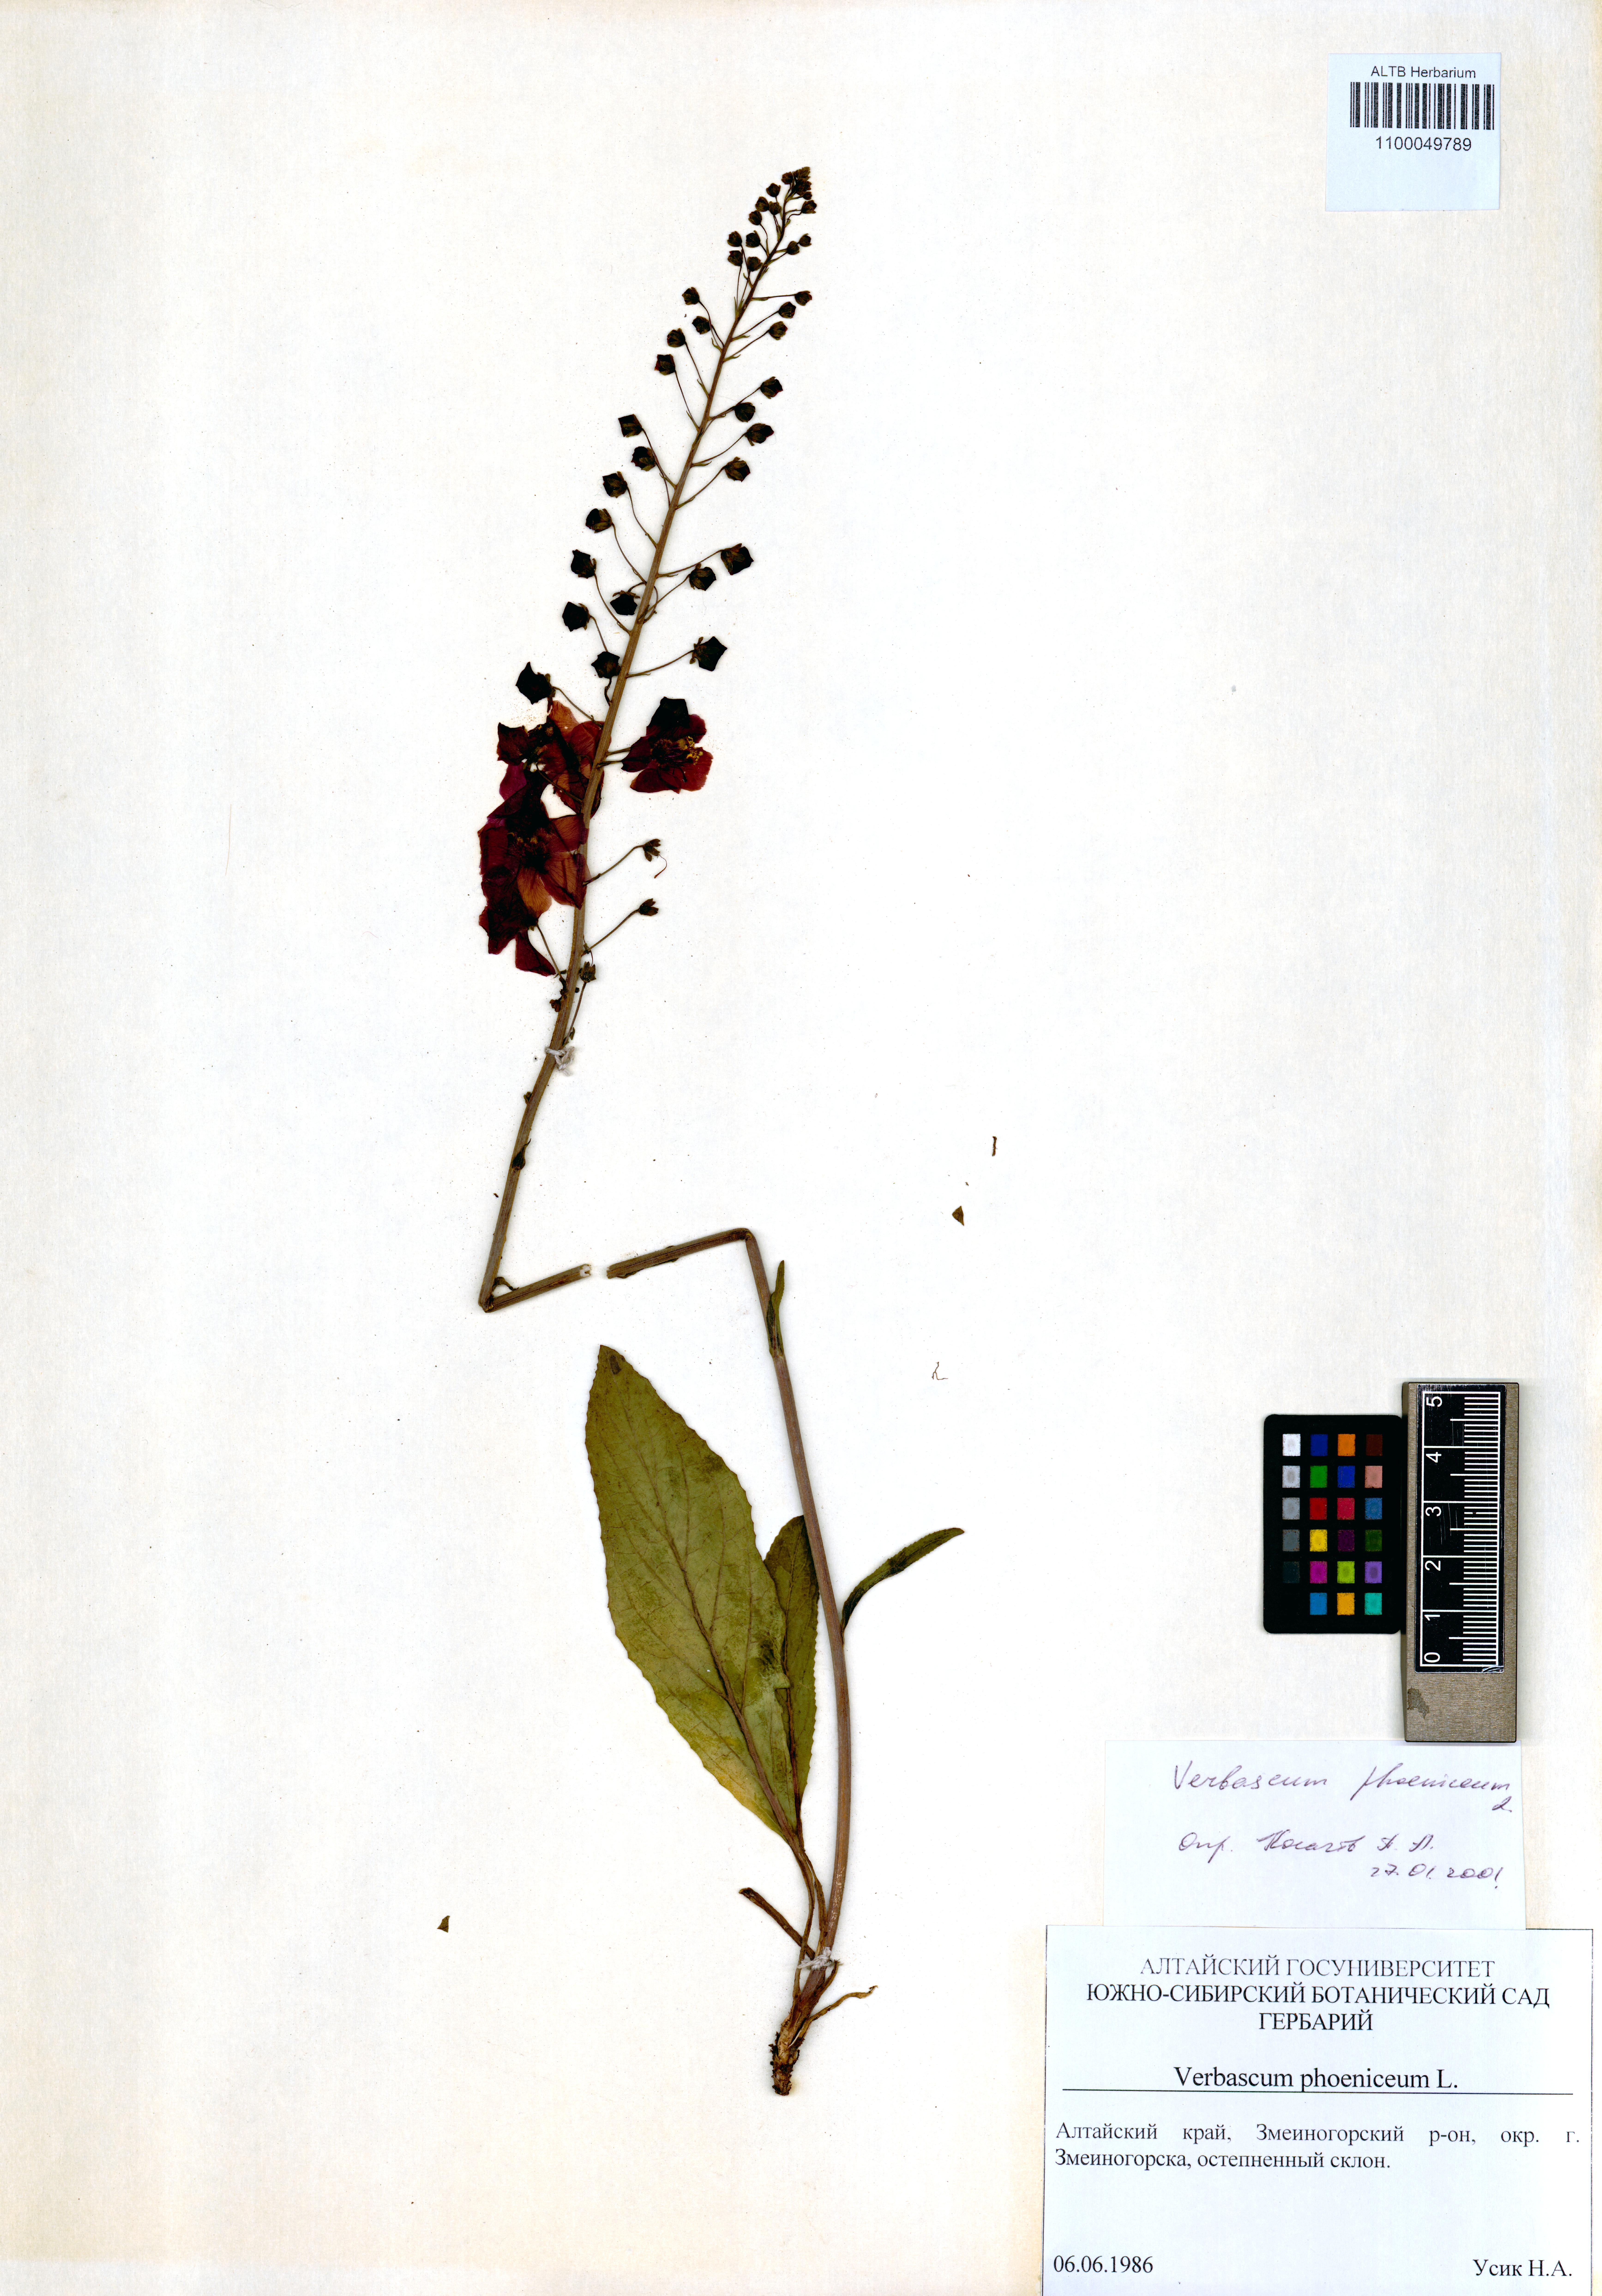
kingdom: Plantae
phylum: Tracheophyta
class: Magnoliopsida
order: Lamiales
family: Scrophulariaceae
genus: Verbascum
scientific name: Verbascum phoeniceum
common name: Purple mullein
